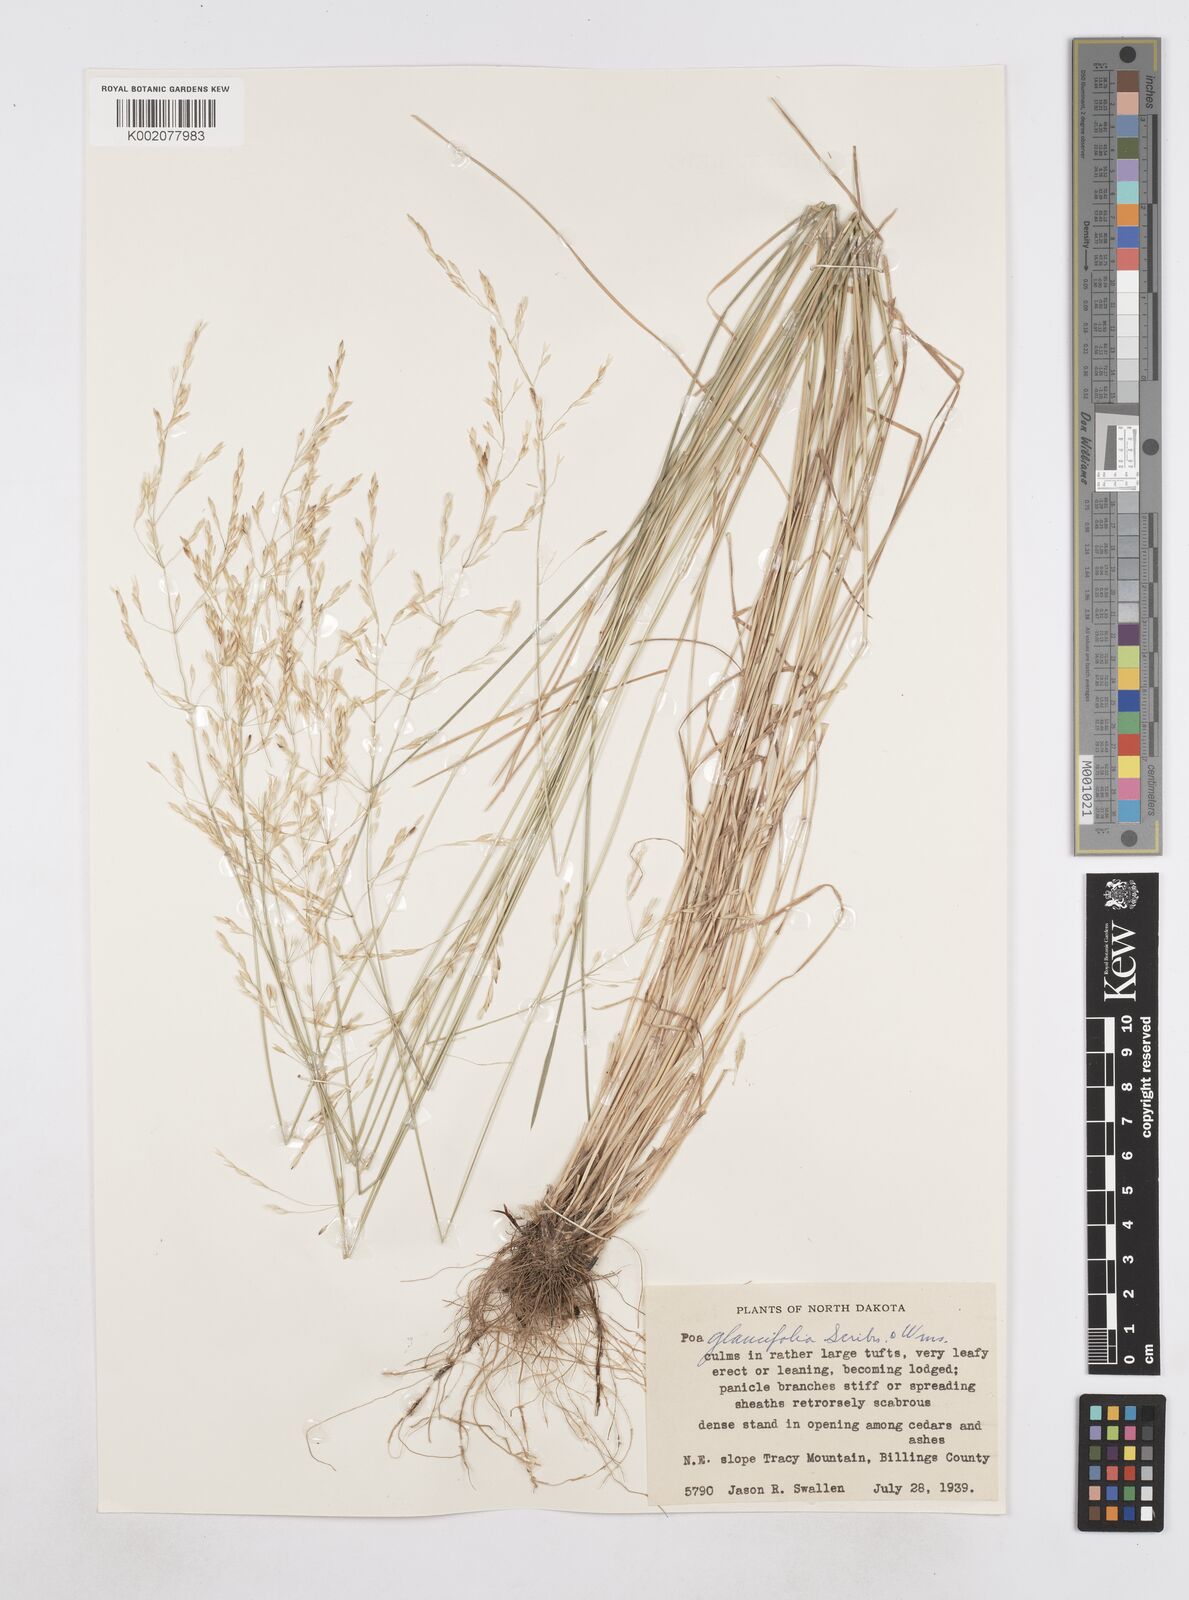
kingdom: Plantae
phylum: Tracheophyta
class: Liliopsida
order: Poales
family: Poaceae
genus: Poa
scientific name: Poa arida
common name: Plains bluegrass
